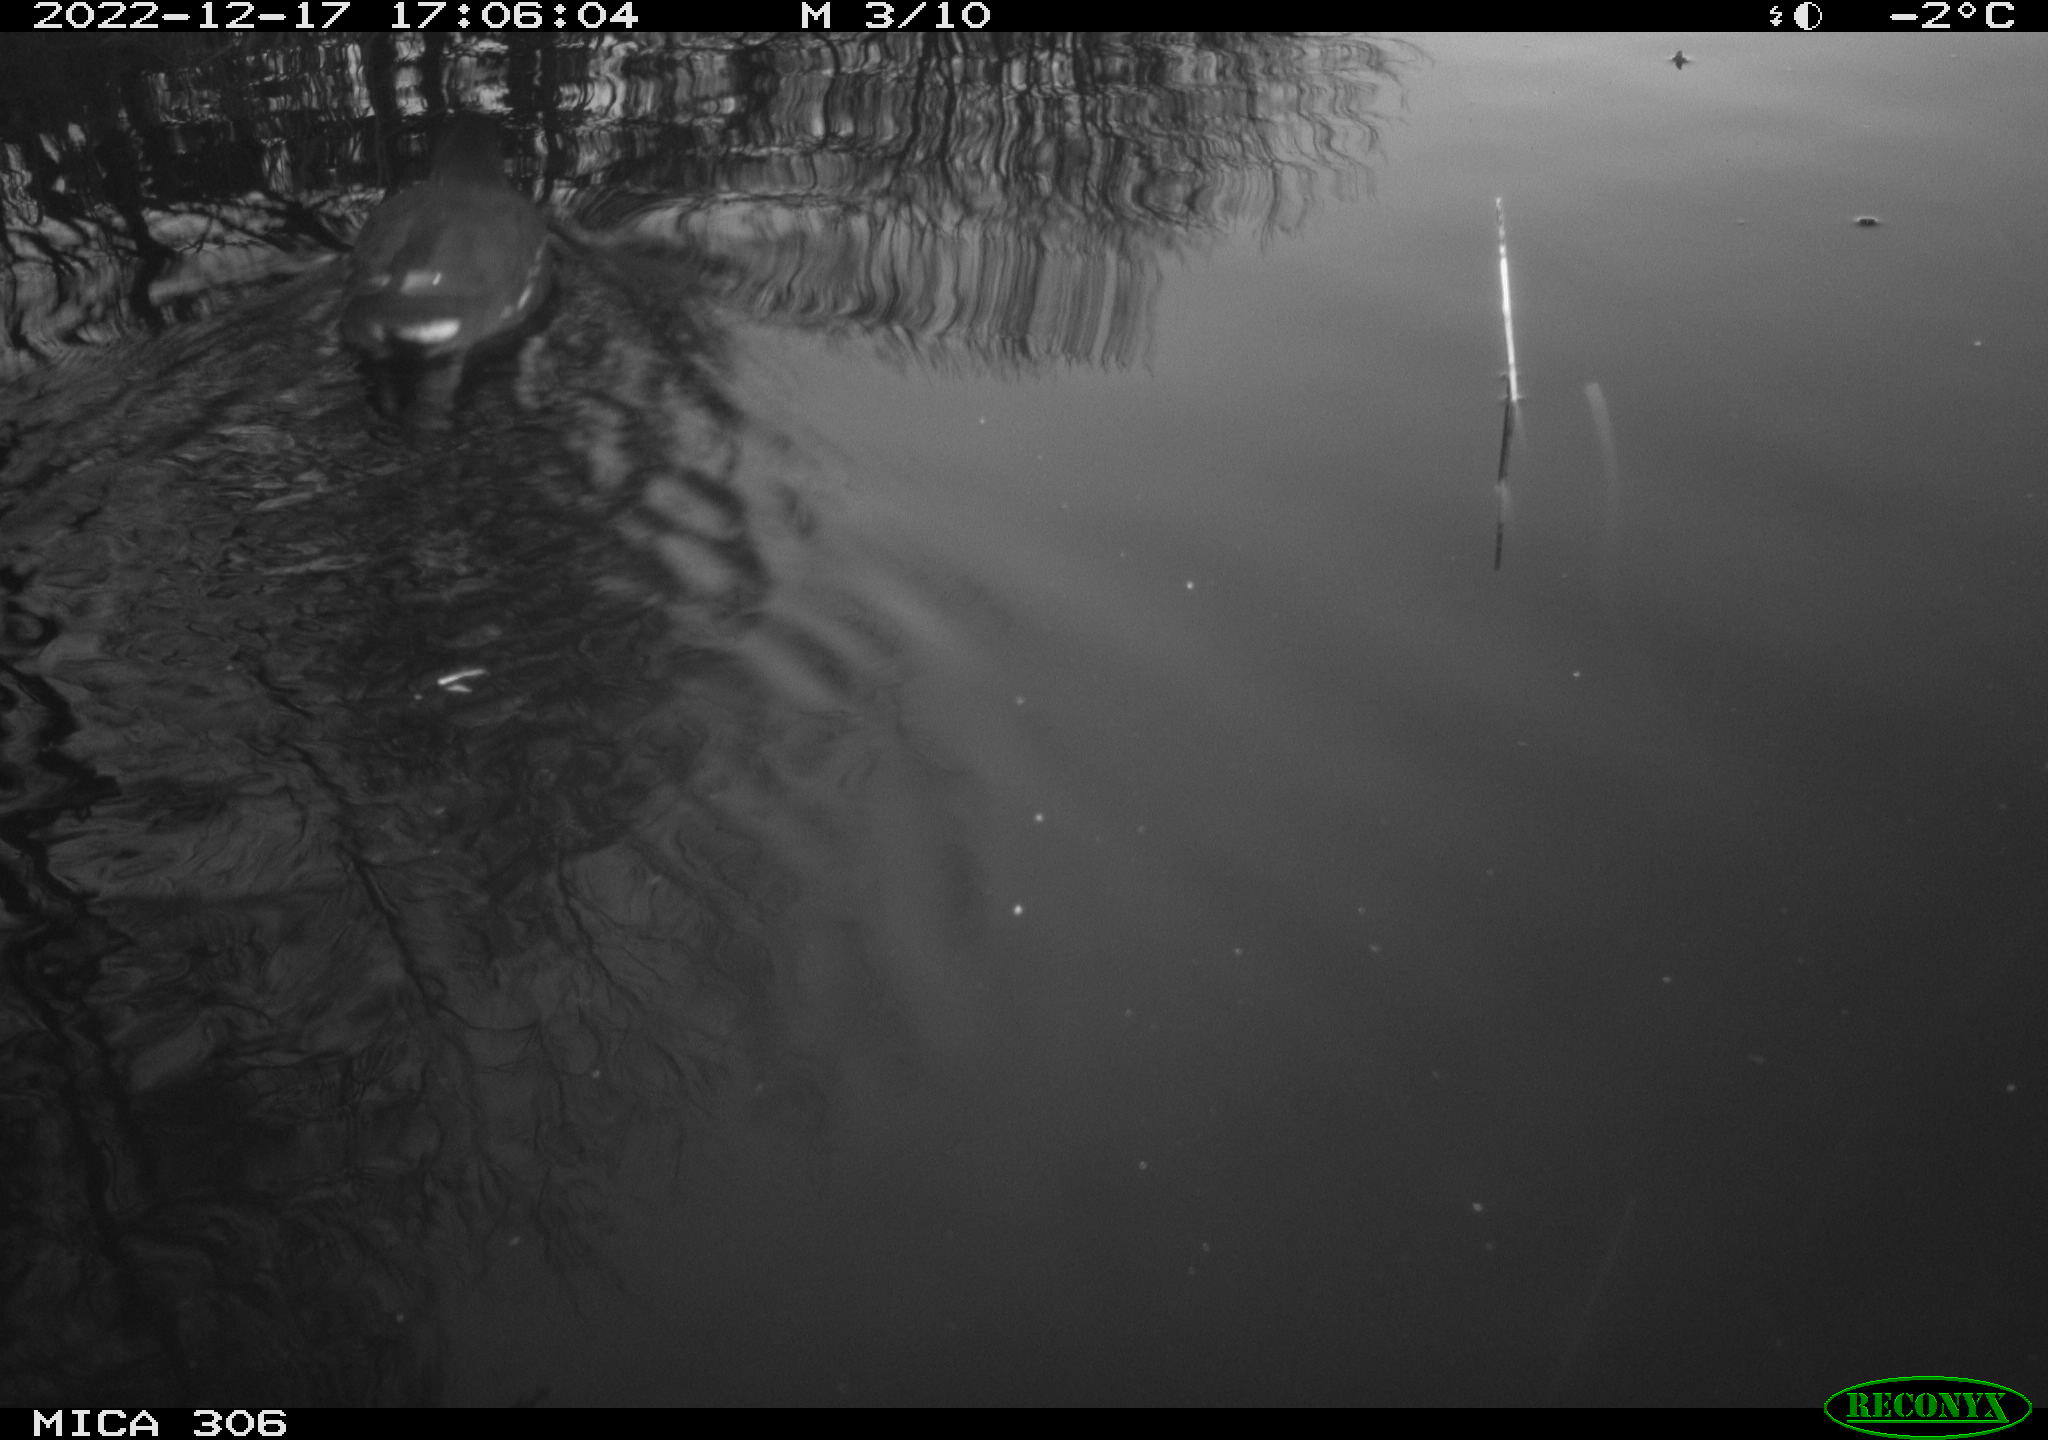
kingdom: Animalia
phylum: Chordata
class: Aves
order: Gruiformes
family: Rallidae
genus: Gallinula
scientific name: Gallinula chloropus
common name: Common moorhen
